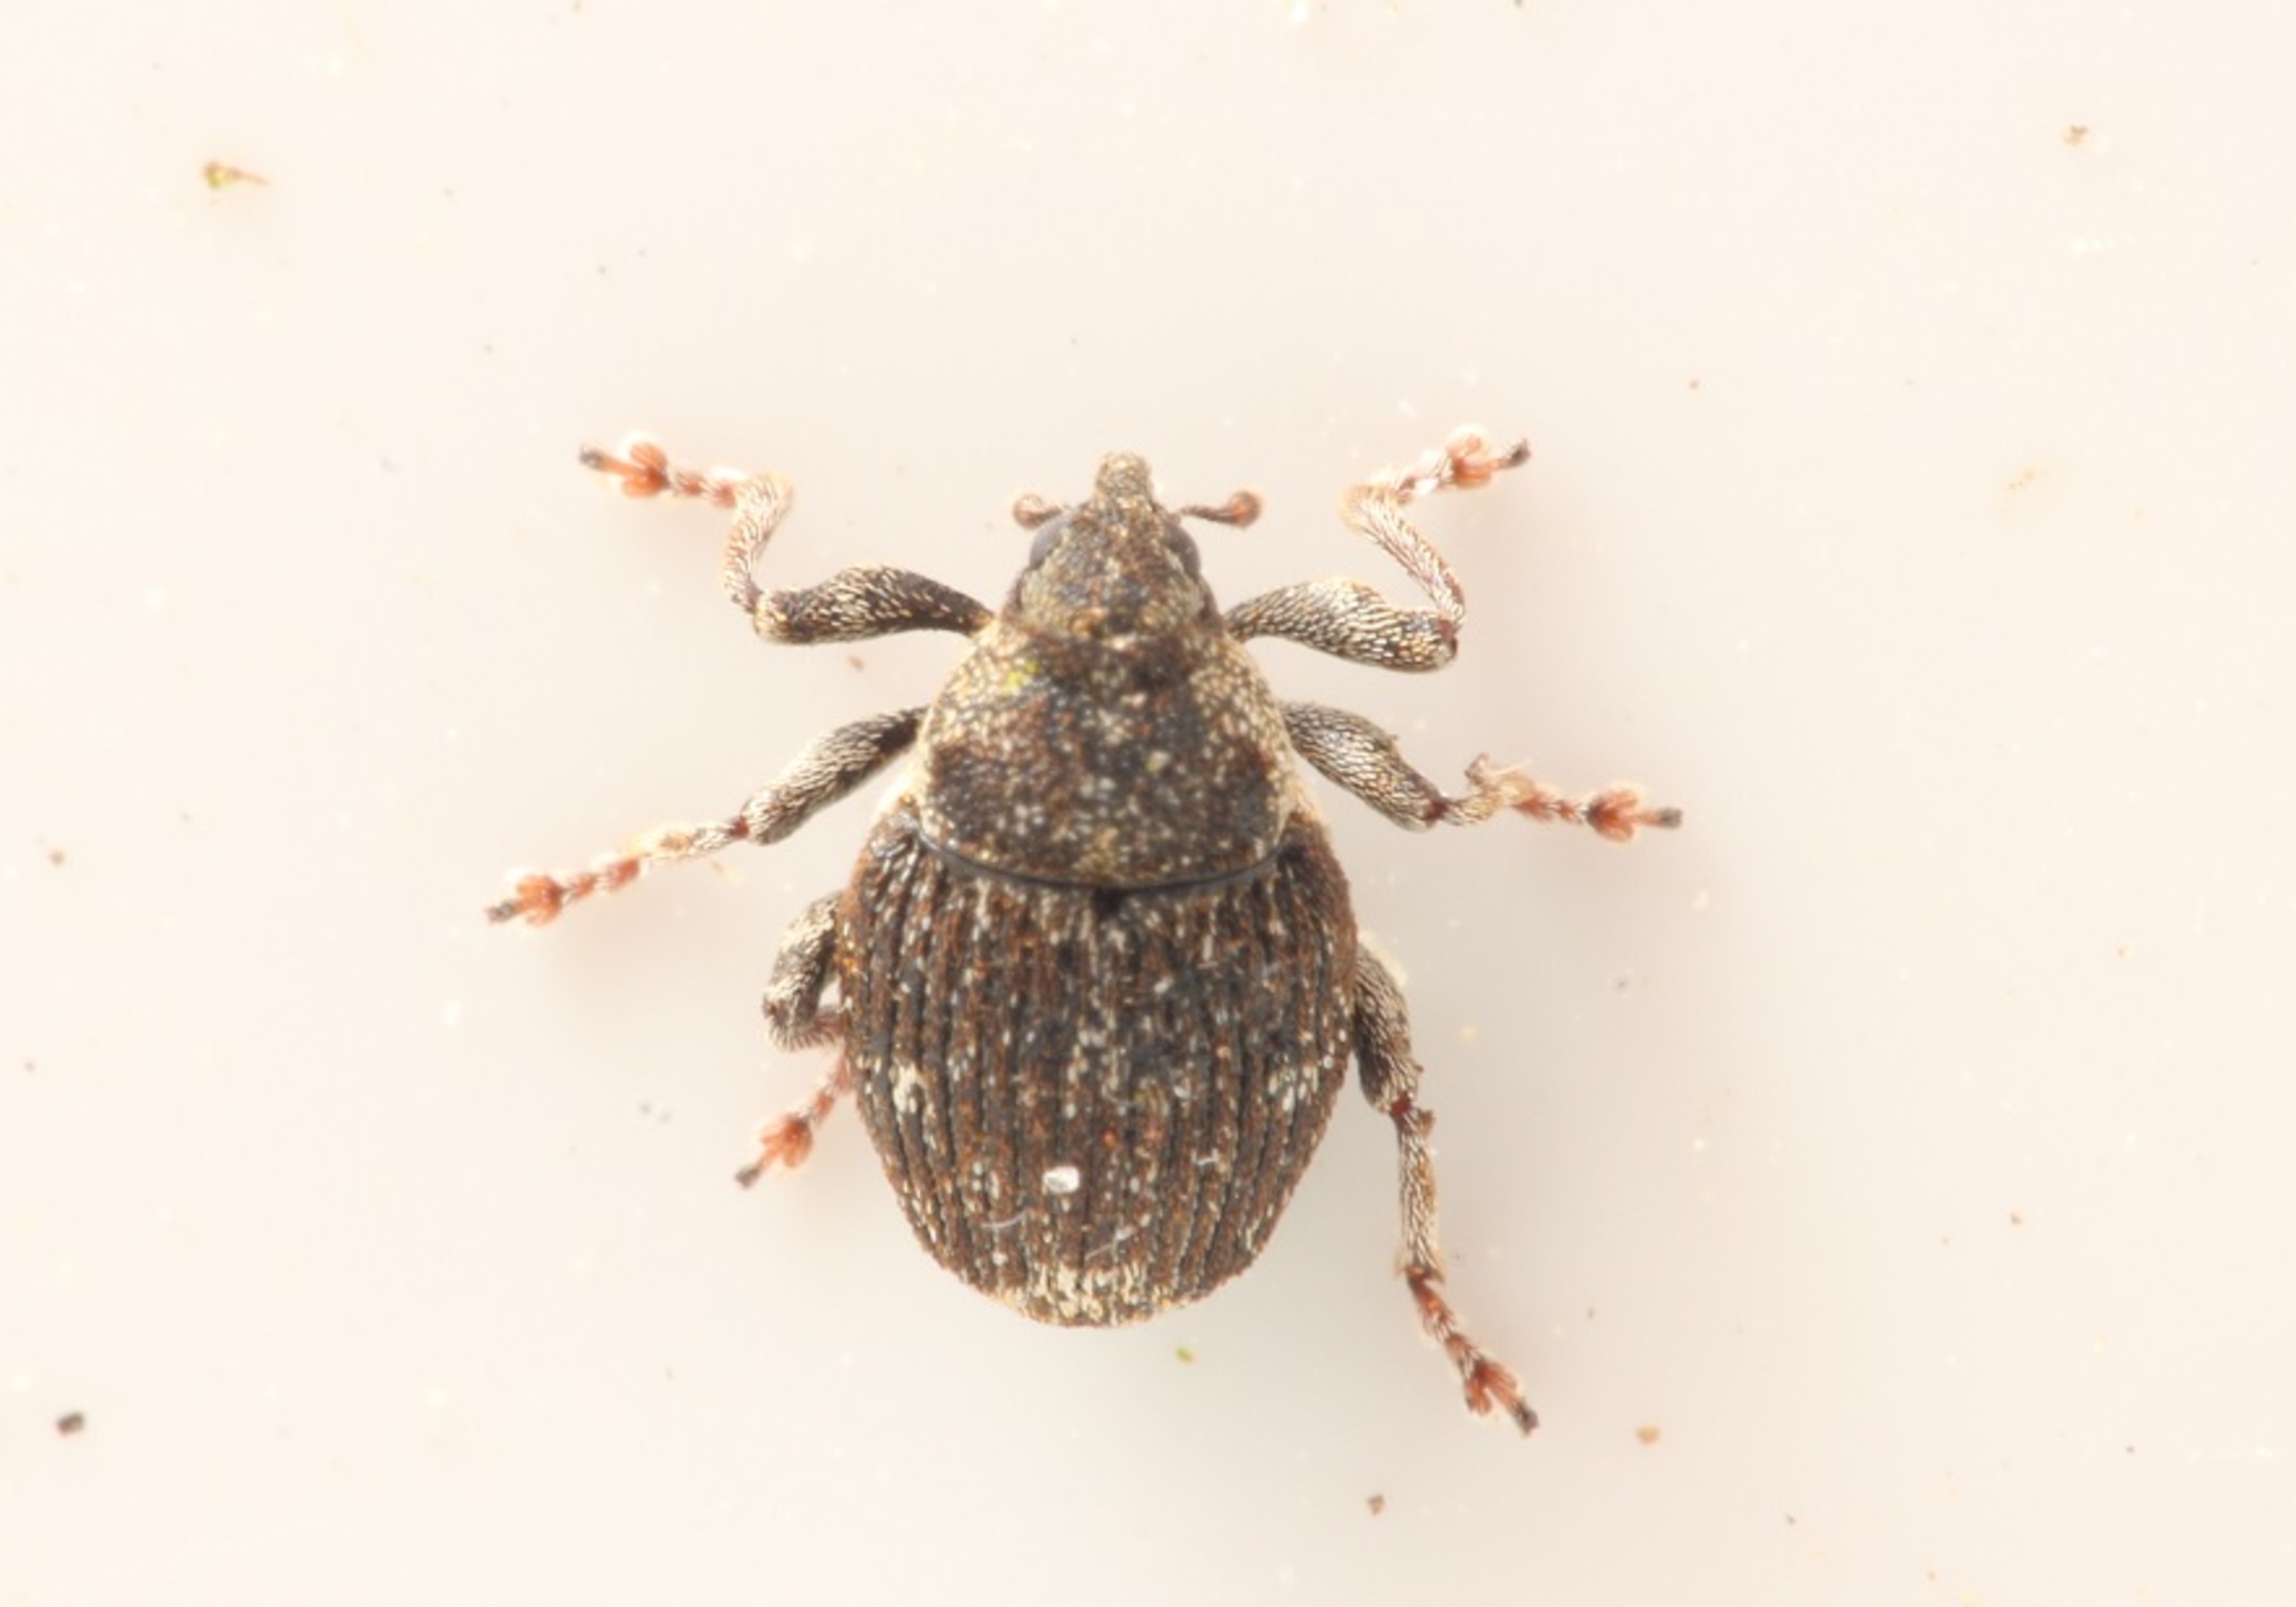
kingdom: Animalia
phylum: Arthropoda
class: Insecta
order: Coleoptera
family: Curculionidae
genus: Nedyus
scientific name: Nedyus quadrimaculatus
